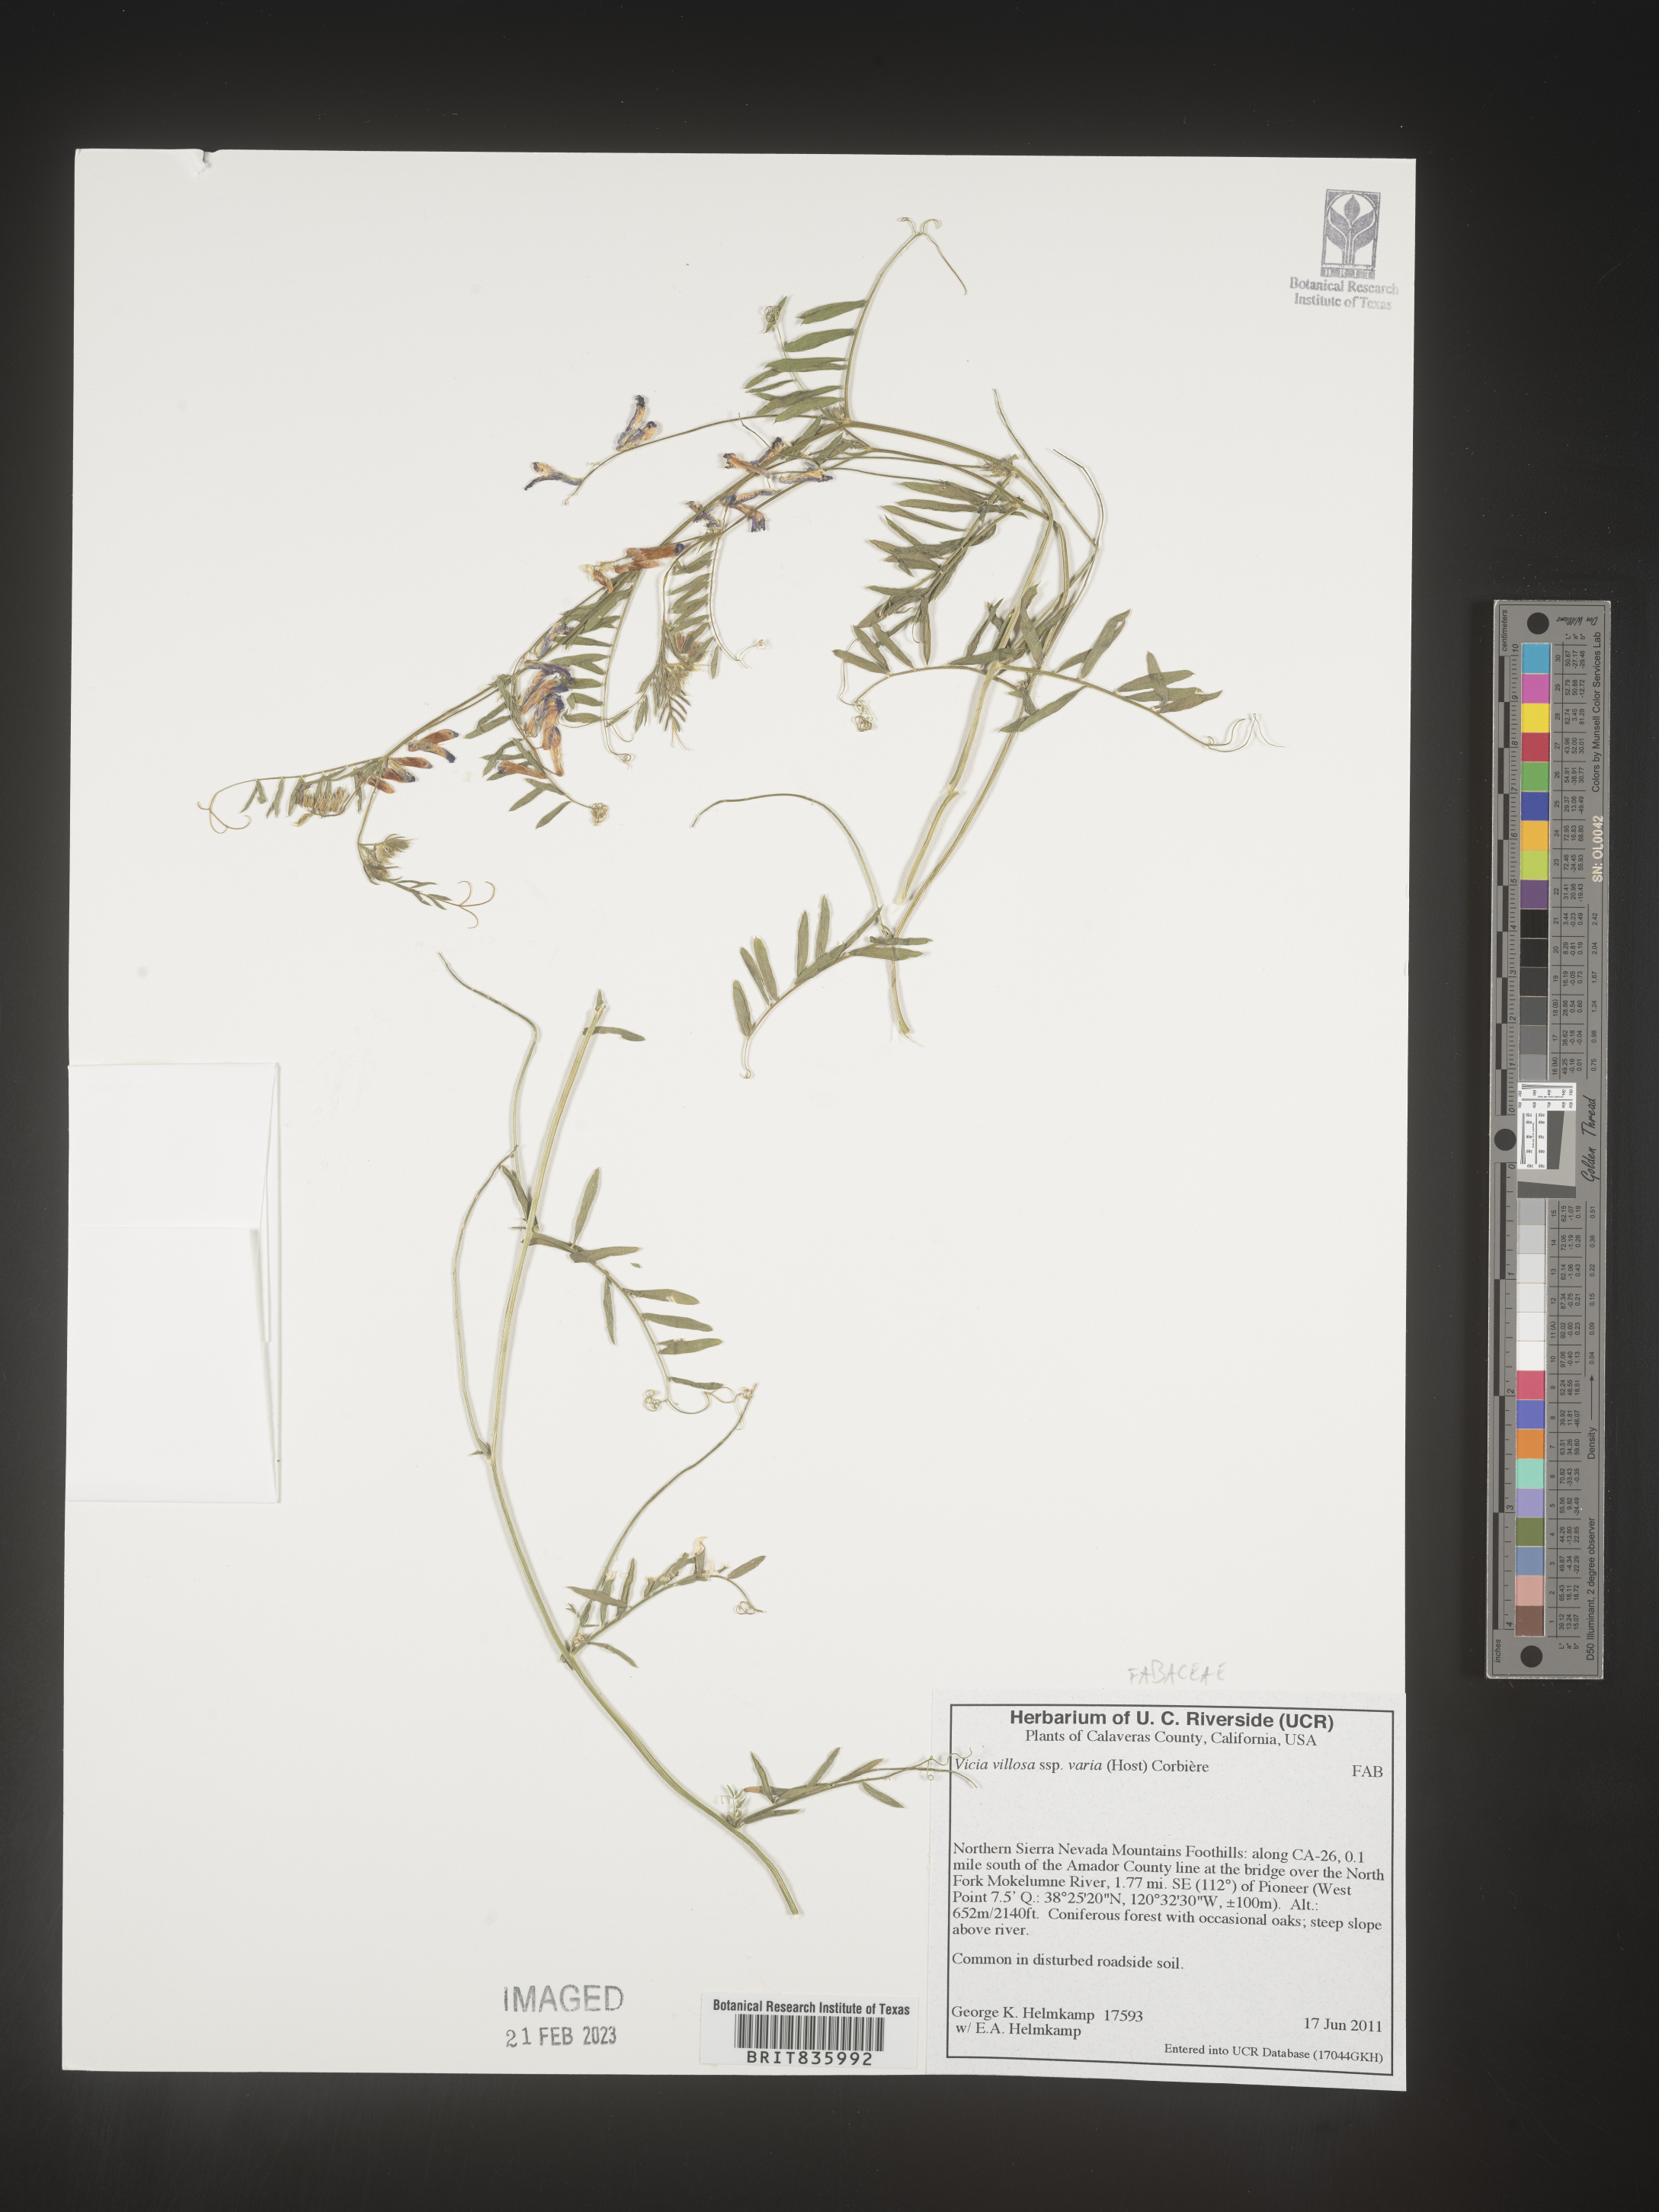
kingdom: Plantae
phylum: Tracheophyta
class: Magnoliopsida
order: Fabales
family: Fabaceae
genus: Vicia
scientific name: Vicia villosa
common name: Fodder vetch
